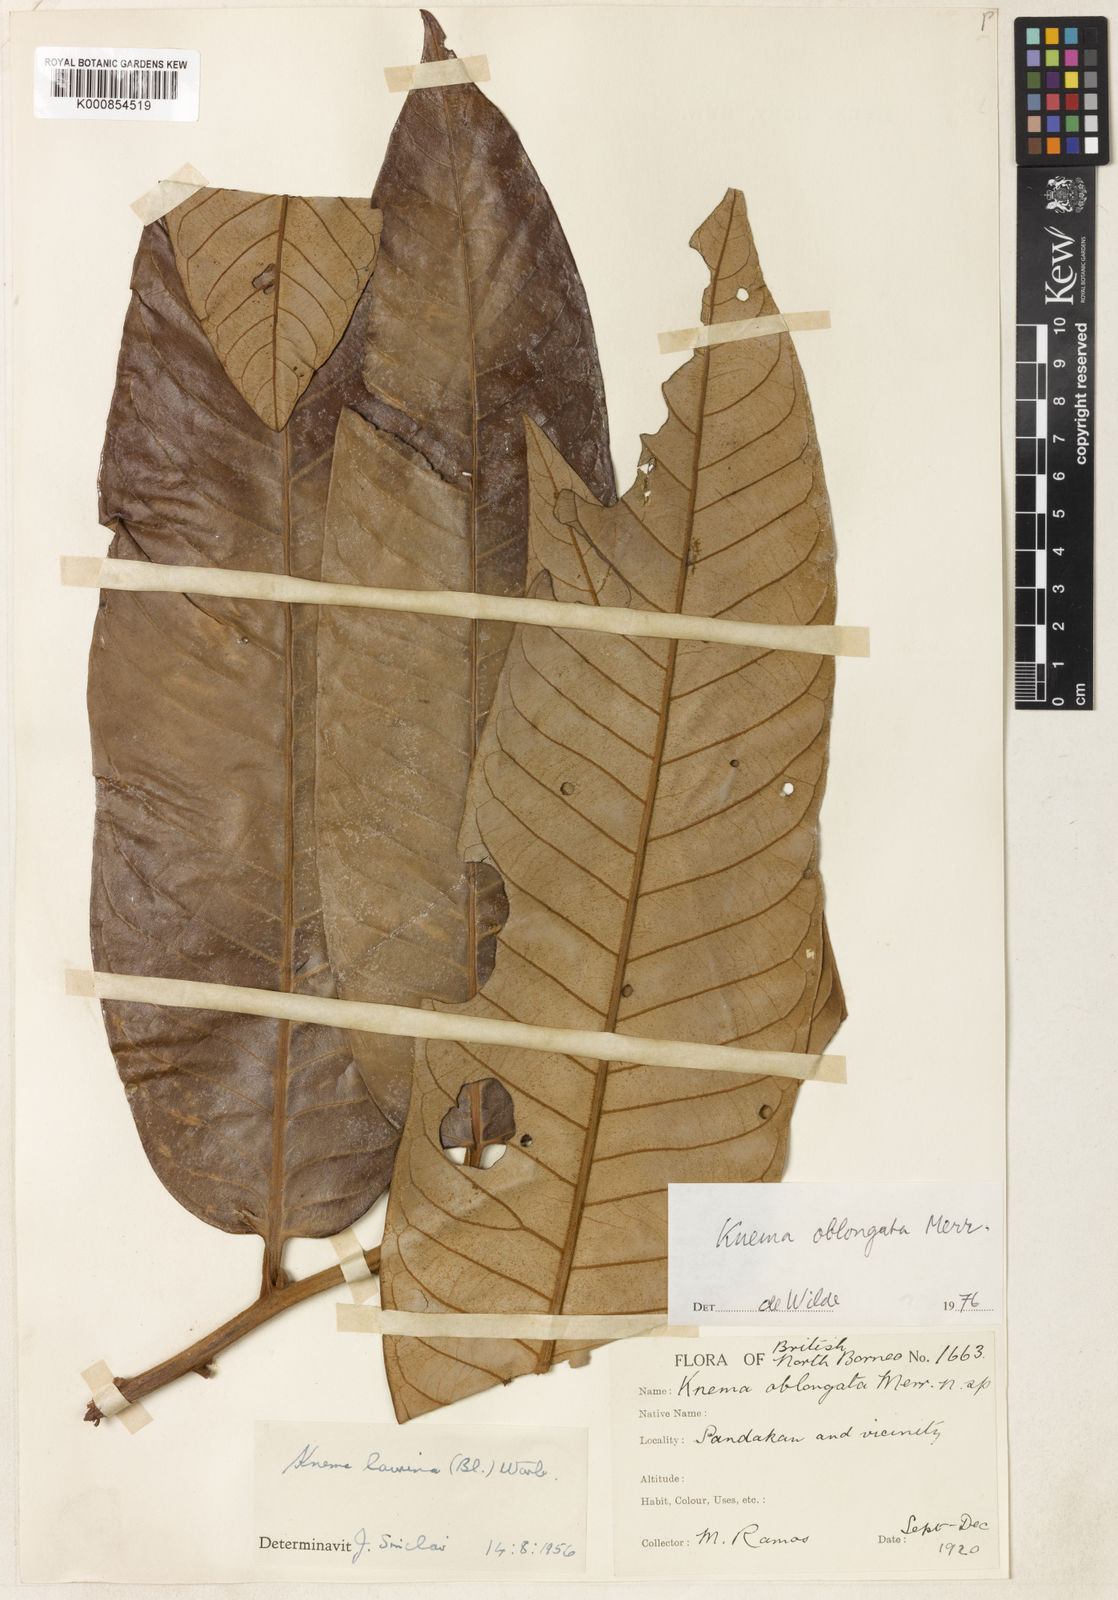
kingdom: Plantae
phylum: Tracheophyta
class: Magnoliopsida
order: Magnoliales
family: Myristicaceae
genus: Knema
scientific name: Knema oblongata
